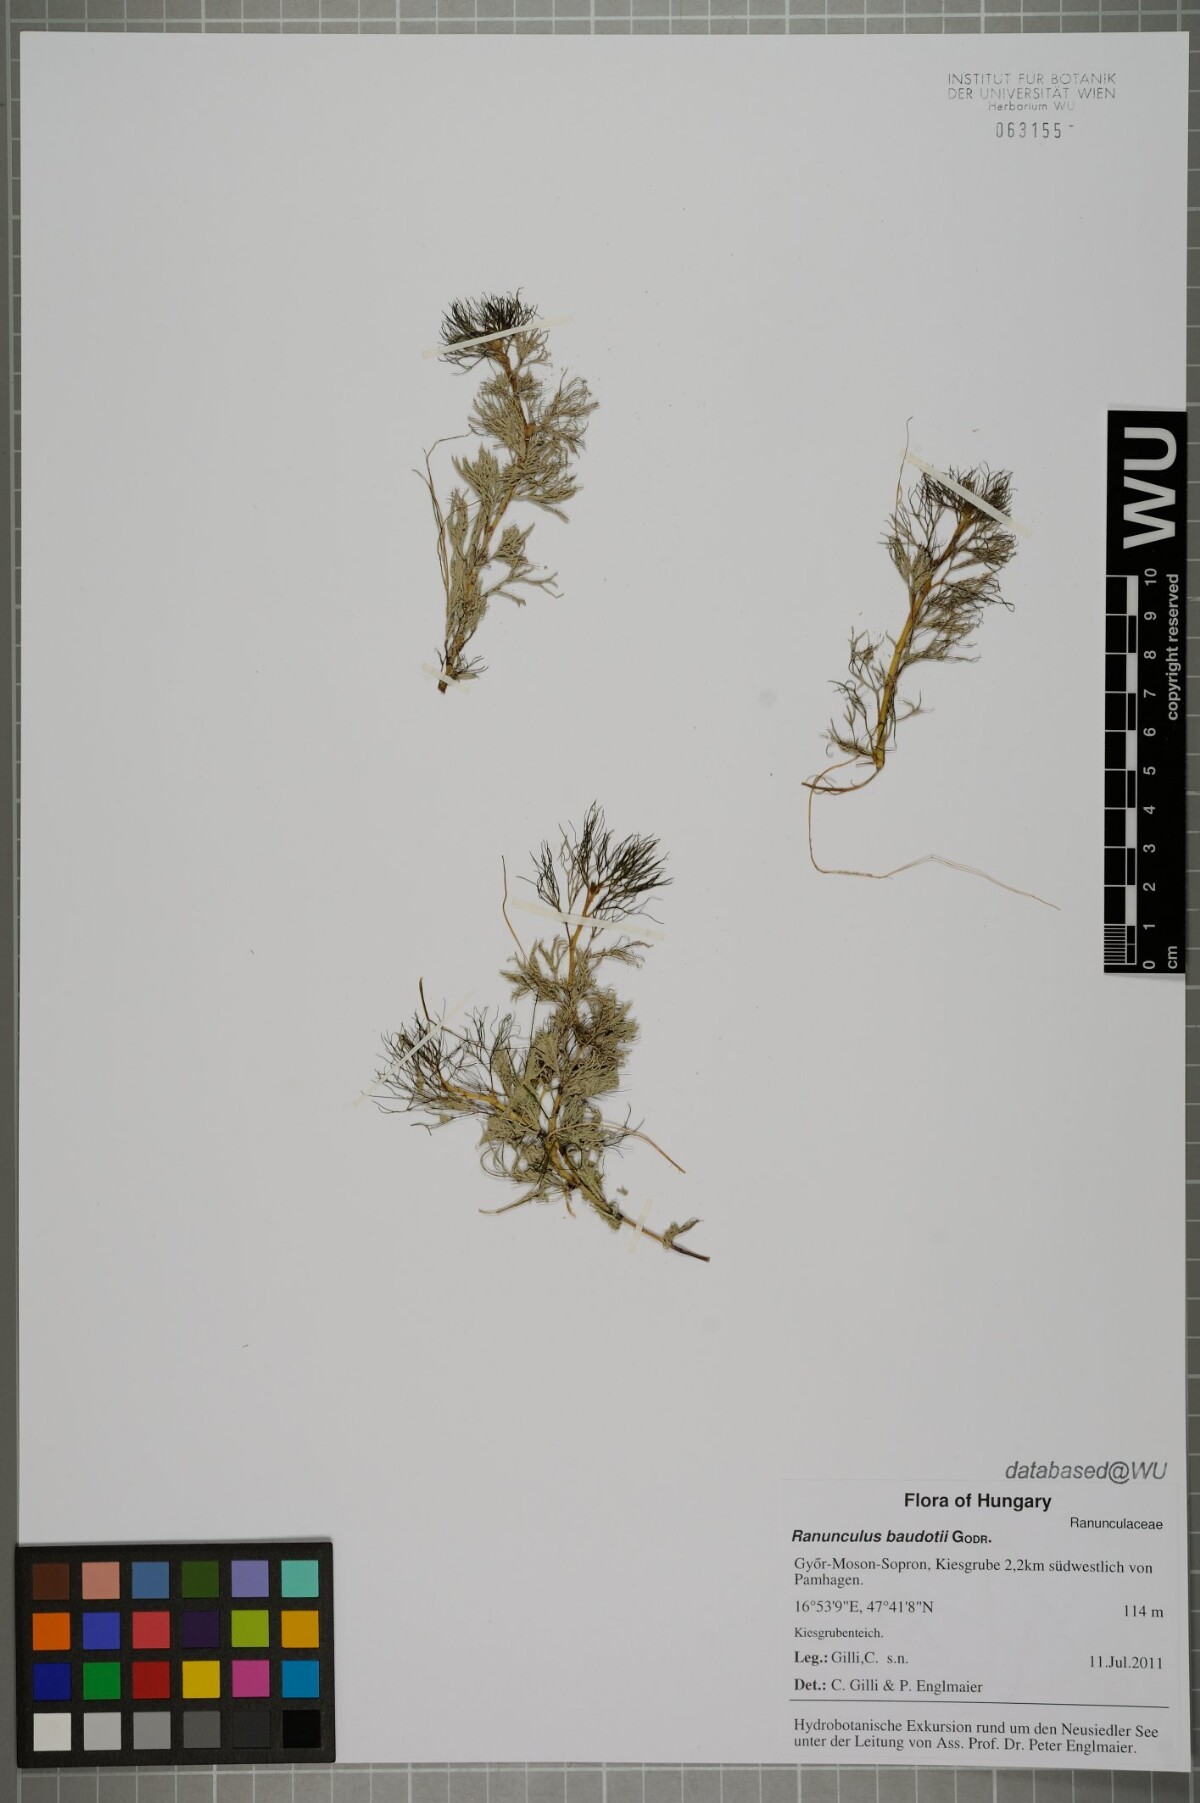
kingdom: Plantae
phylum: Tracheophyta
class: Magnoliopsida
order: Ranunculales
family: Ranunculaceae
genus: Ranunculus
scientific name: Ranunculus peltatus
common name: Pond water-crowfoot
